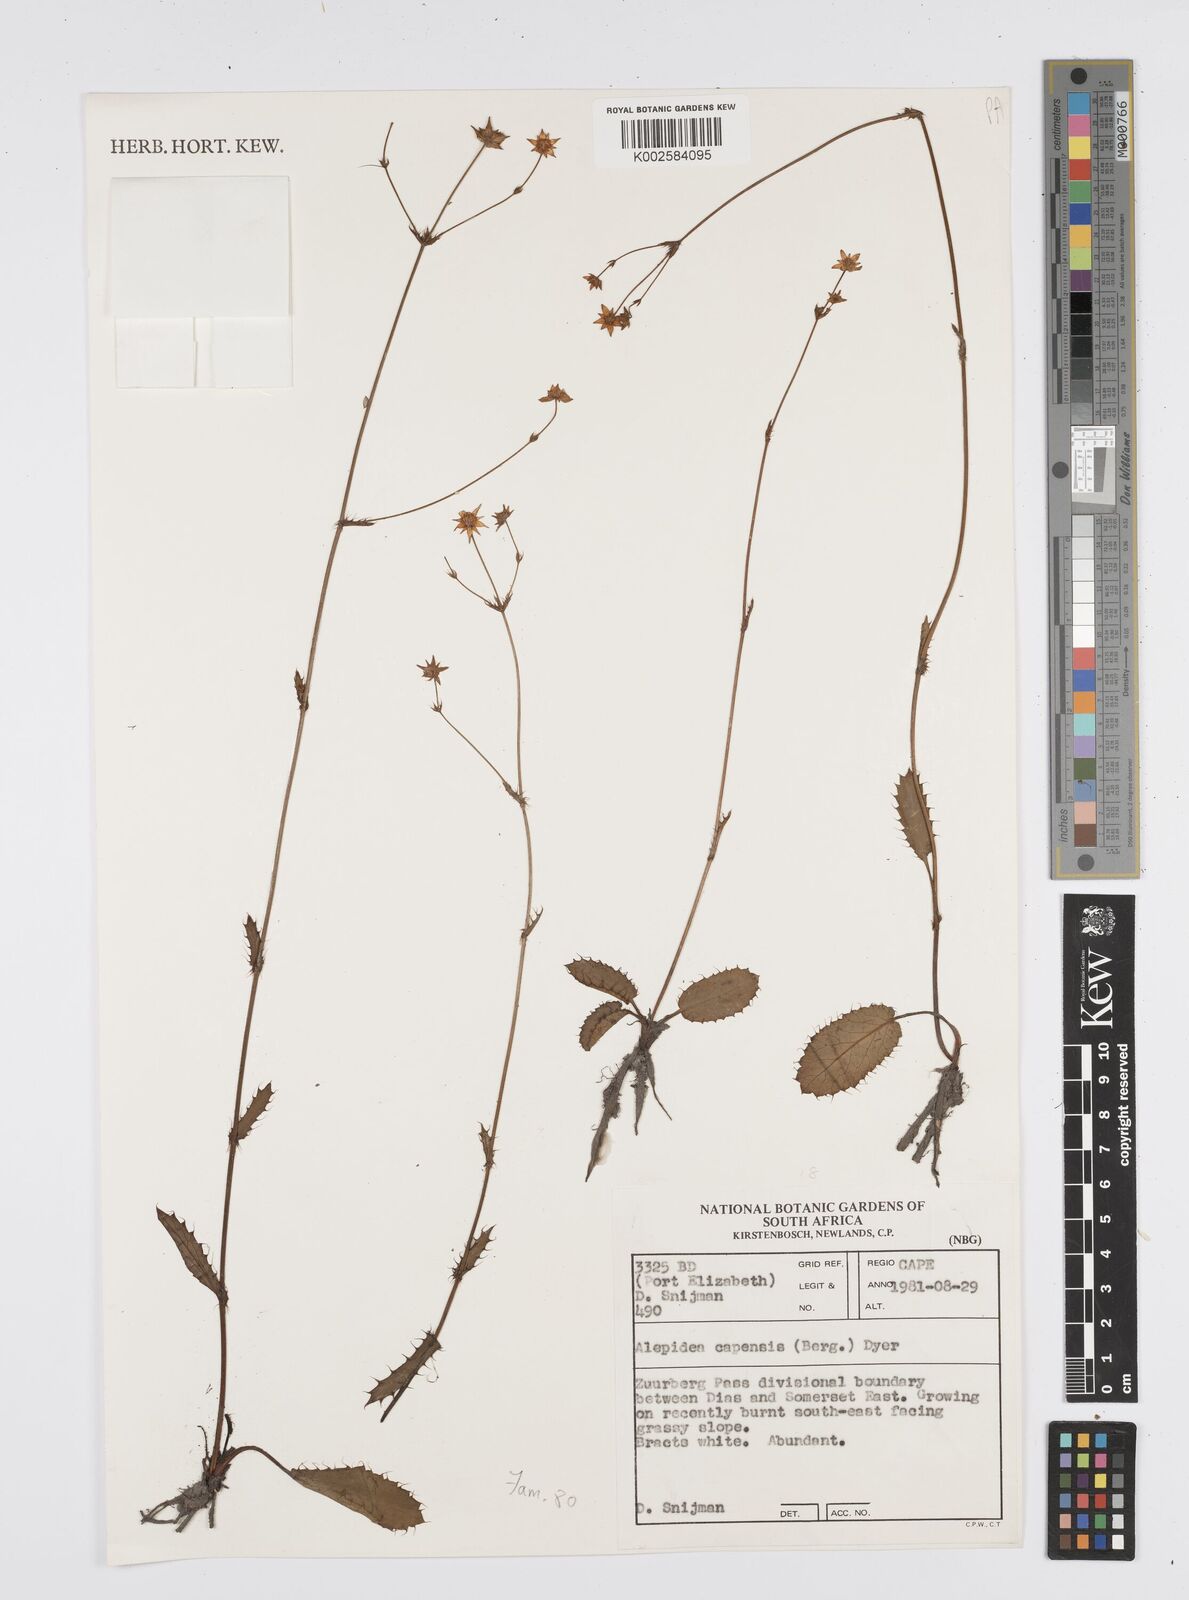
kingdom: Plantae
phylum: Tracheophyta
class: Magnoliopsida
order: Apiales
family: Apiaceae
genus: Alepidea
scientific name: Alepidea capensis
